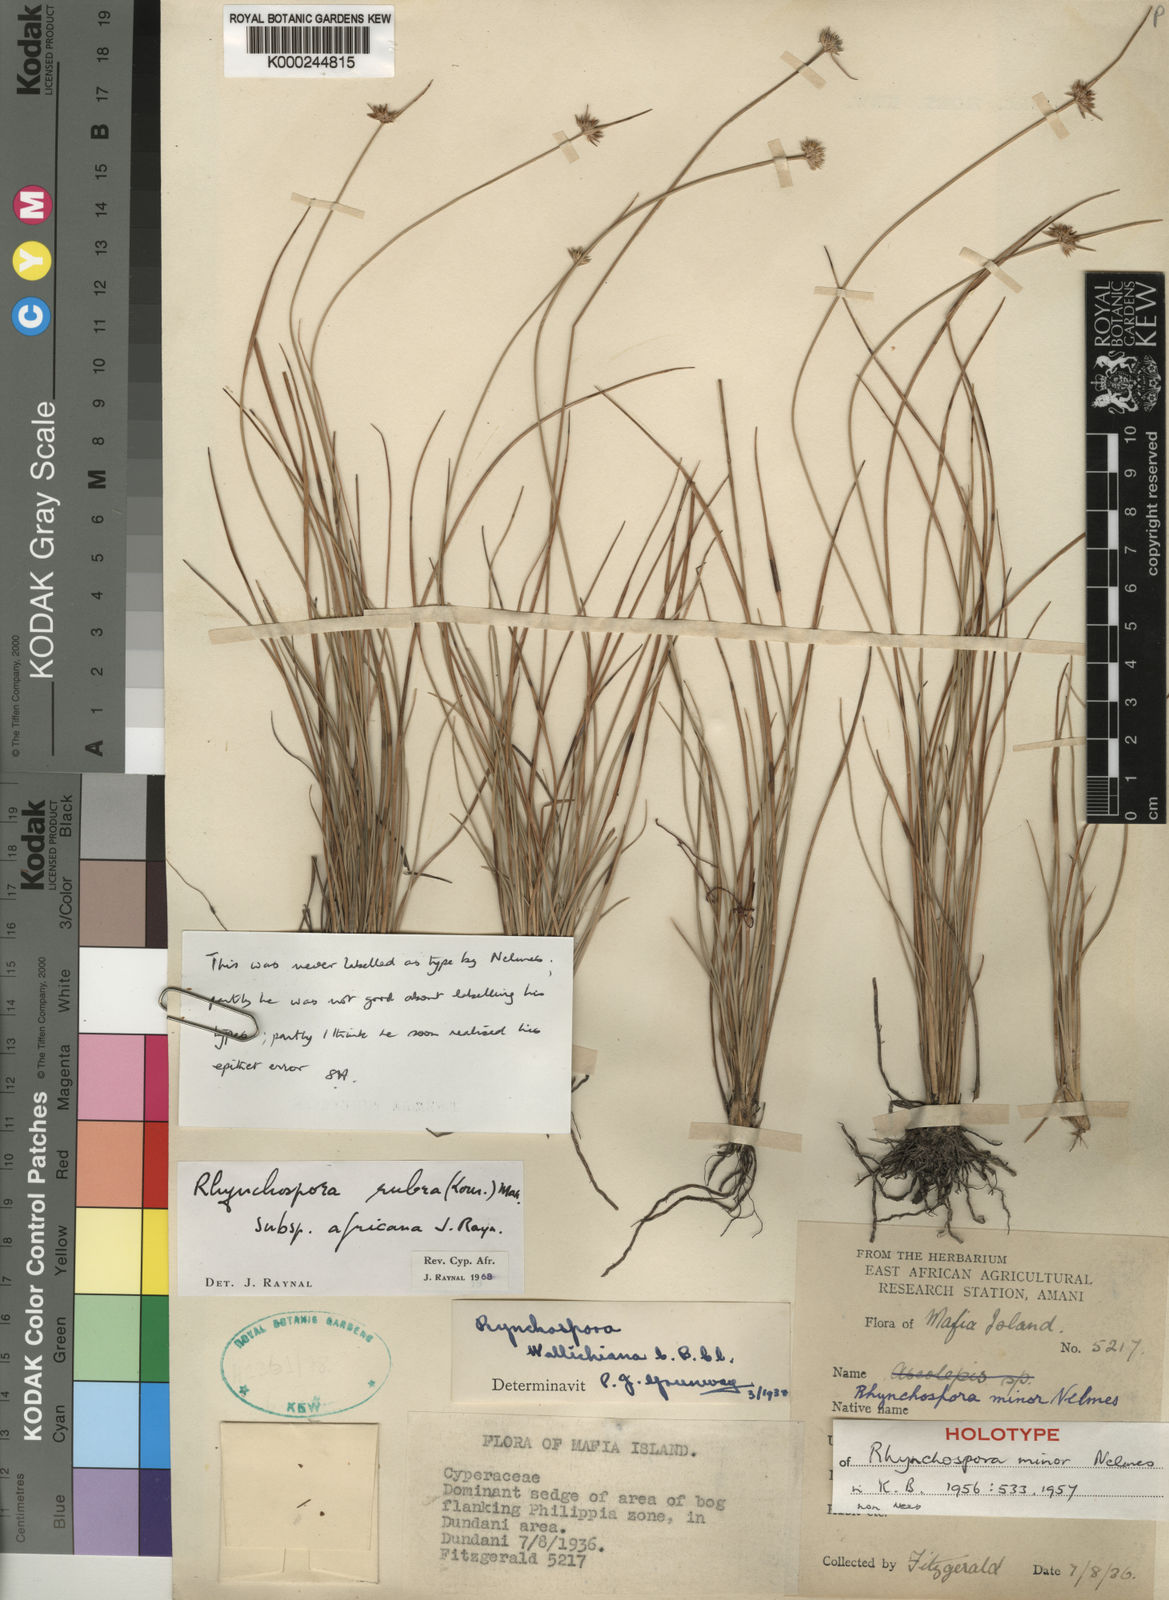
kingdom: Plantae
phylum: Tracheophyta
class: Liliopsida
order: Poales
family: Cyperaceae
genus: Rhynchospora
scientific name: Rhynchospora
